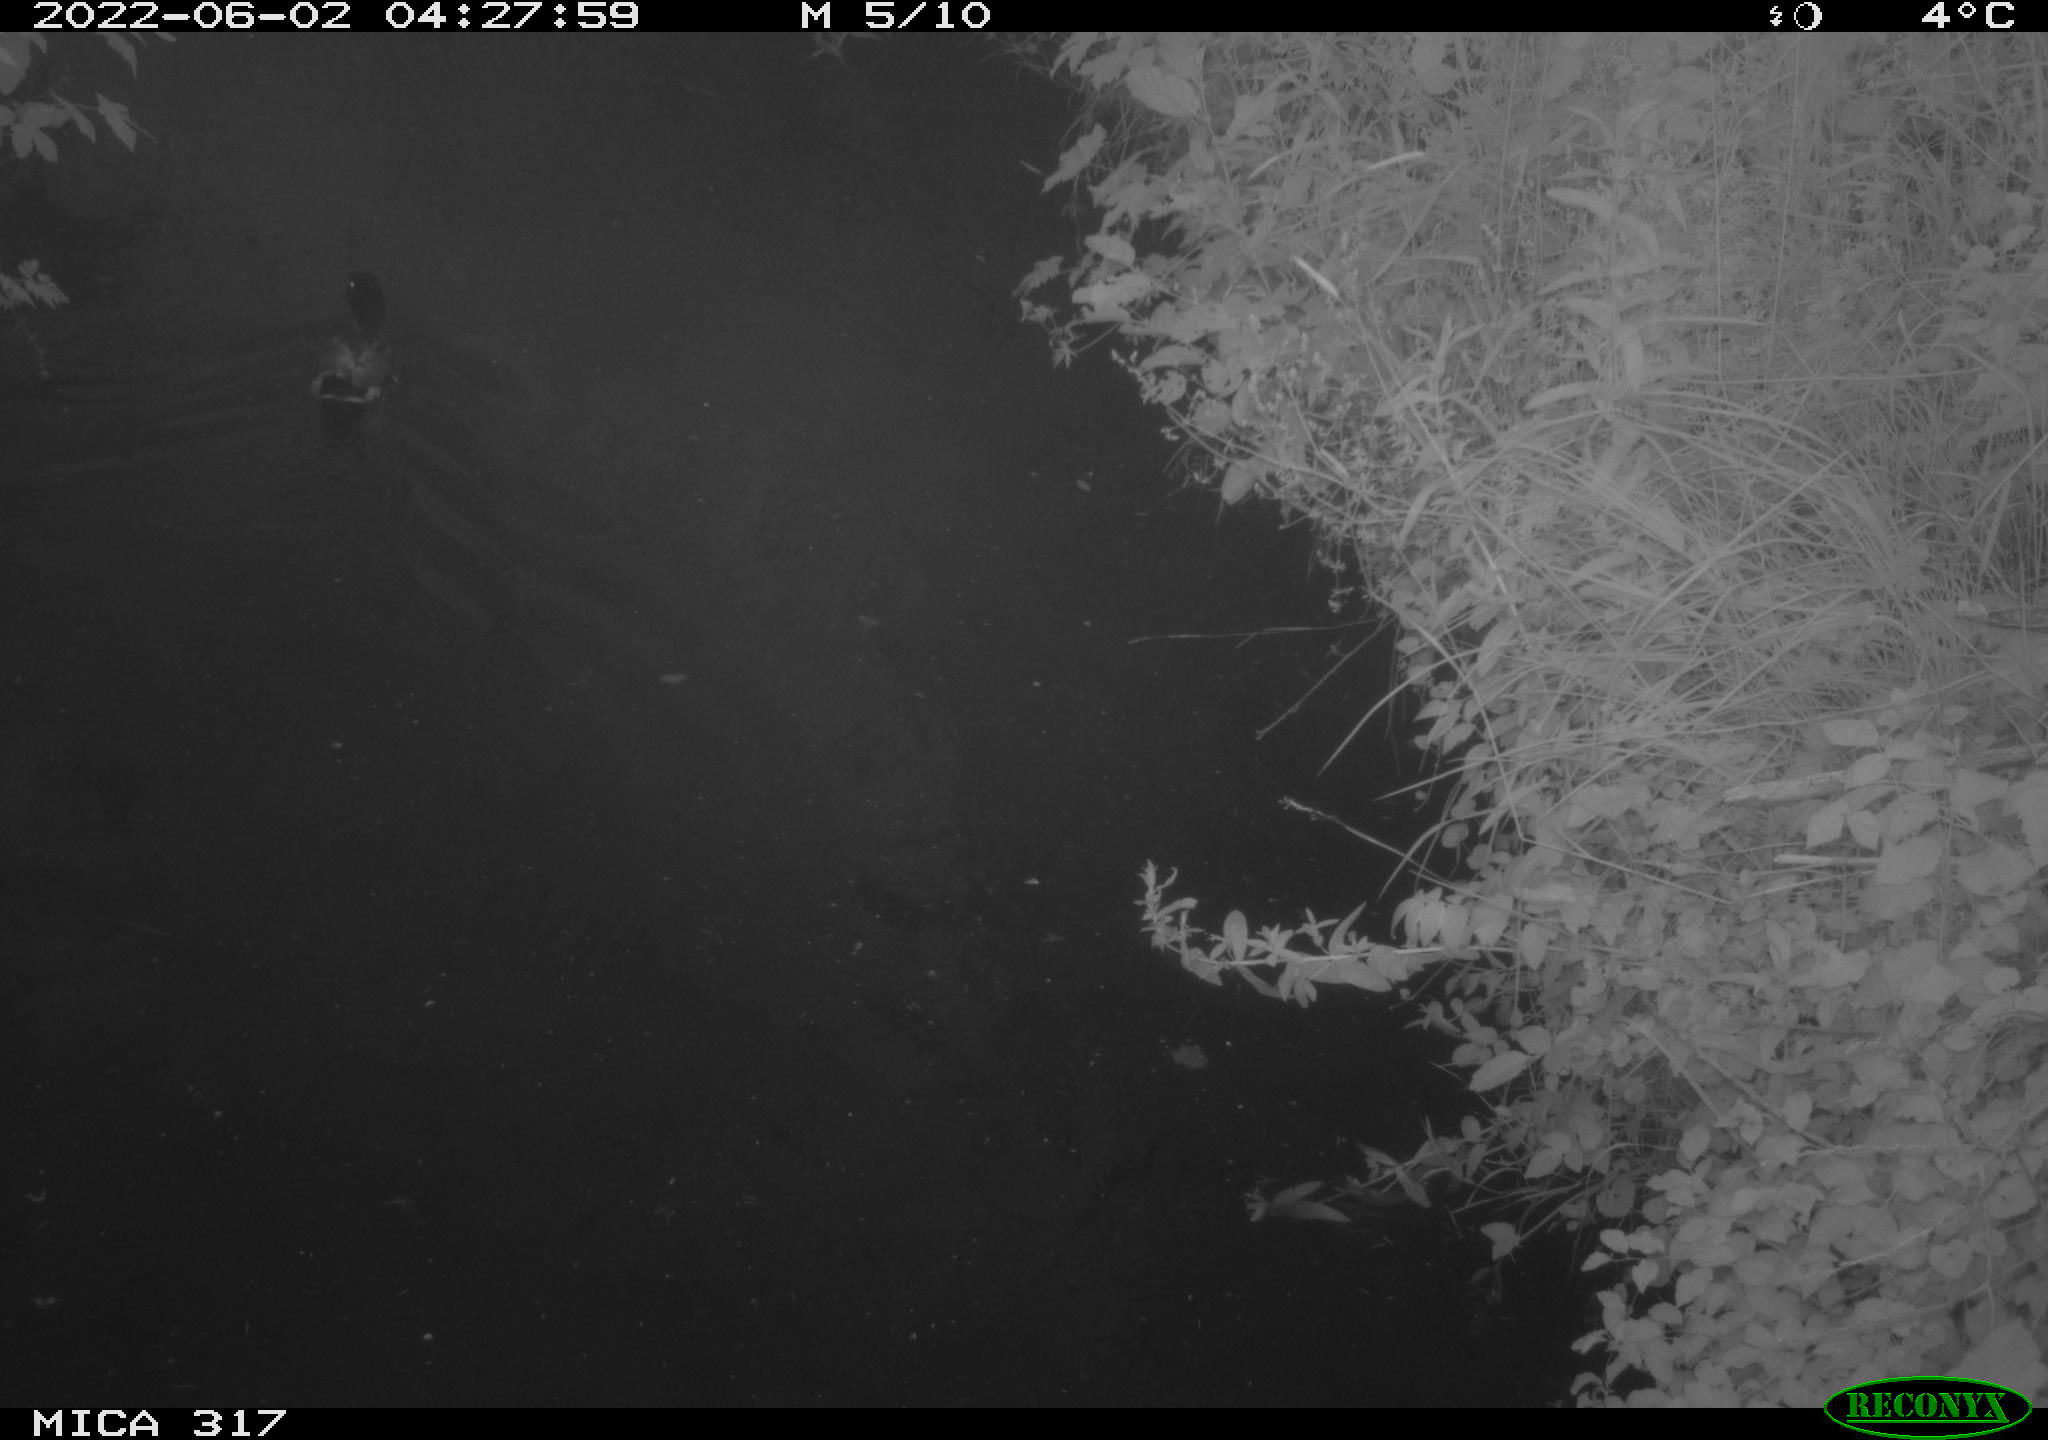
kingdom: Animalia
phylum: Chordata
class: Aves
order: Anseriformes
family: Anatidae
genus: Anas
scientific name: Anas
